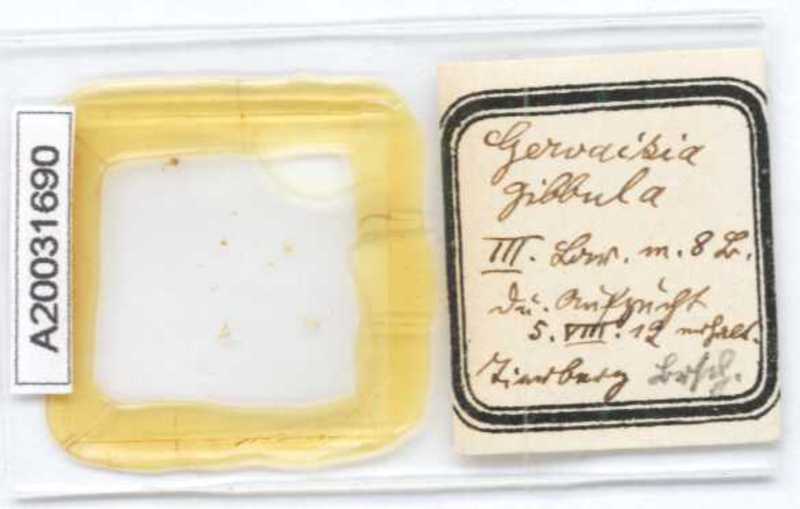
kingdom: Animalia
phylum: Arthropoda
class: Diplopoda
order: Glomerida
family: Glomeridae
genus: Gervaisia
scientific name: Gervaisia gibbula
